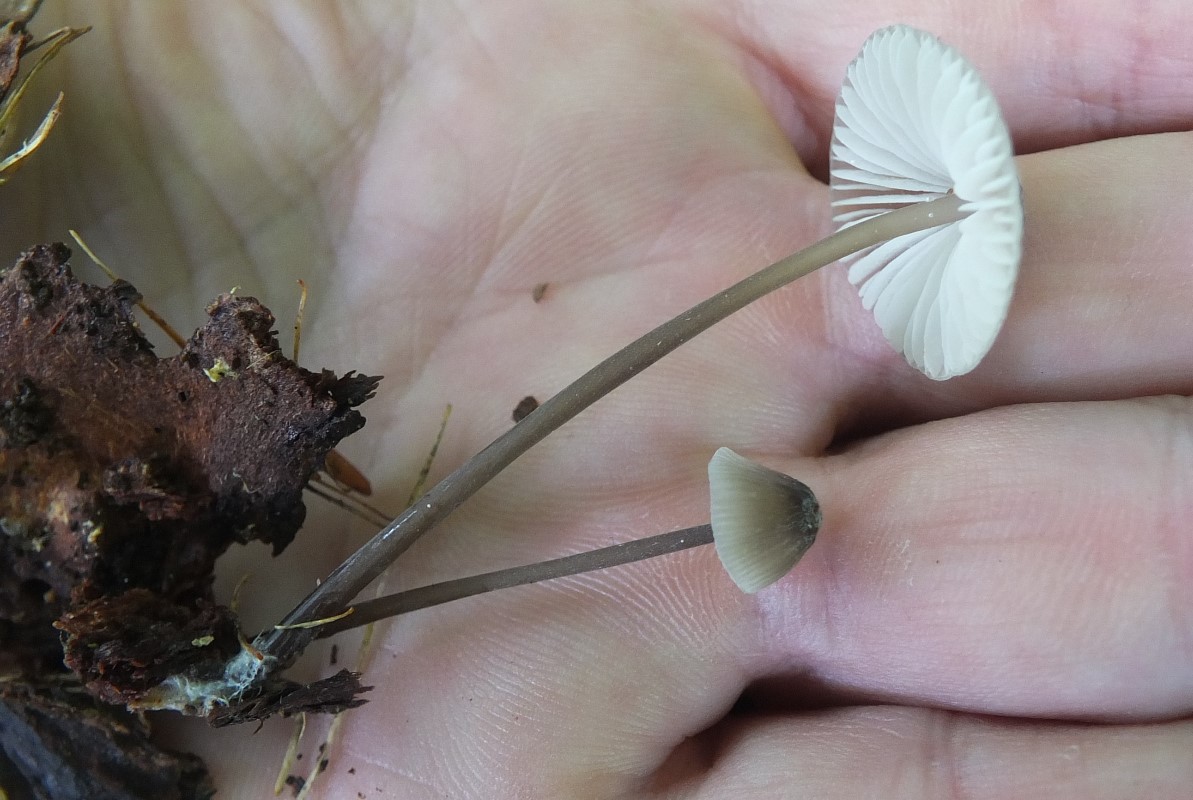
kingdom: Fungi
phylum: Basidiomycota
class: Agaricomycetes
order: Agaricales
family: Mycenaceae
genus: Mycena
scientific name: Mycena galopus
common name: hvidmælket huesvamp
